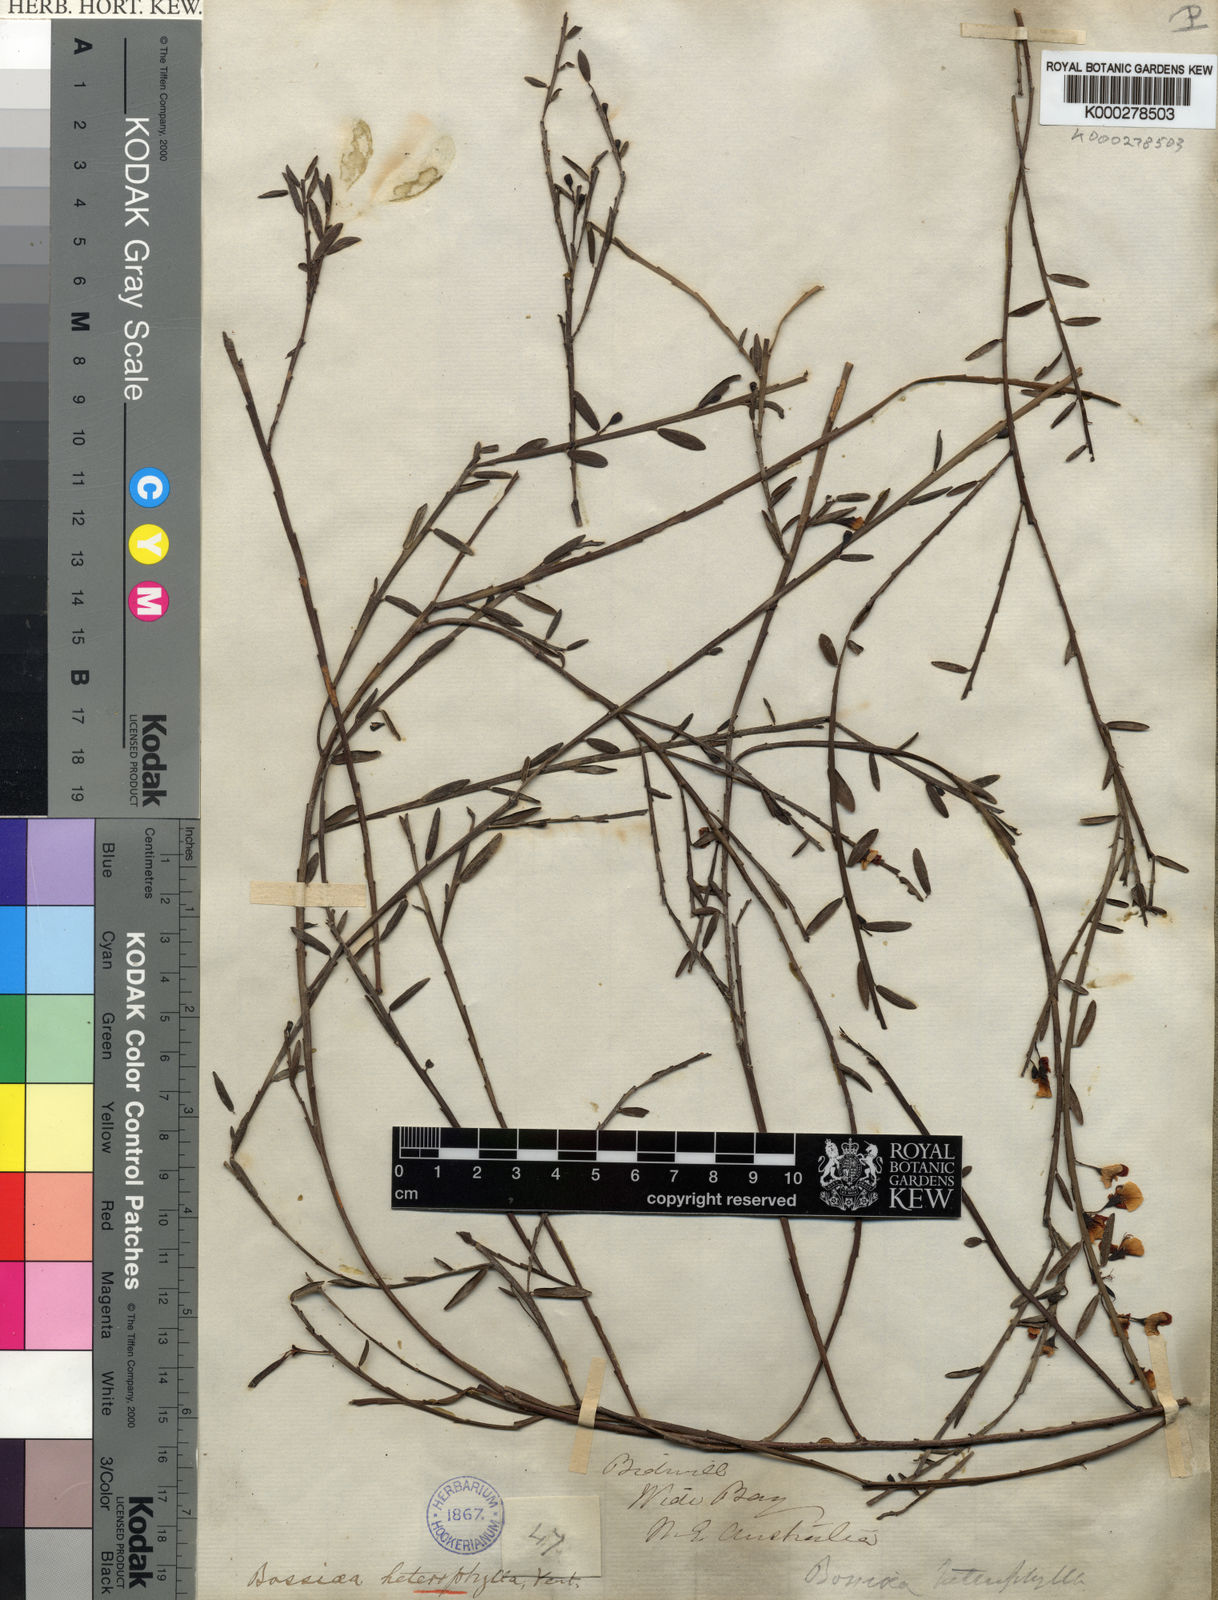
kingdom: Plantae
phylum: Tracheophyta
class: Magnoliopsida
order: Fabales
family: Fabaceae
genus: Bossiaea
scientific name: Bossiaea heterophylla
